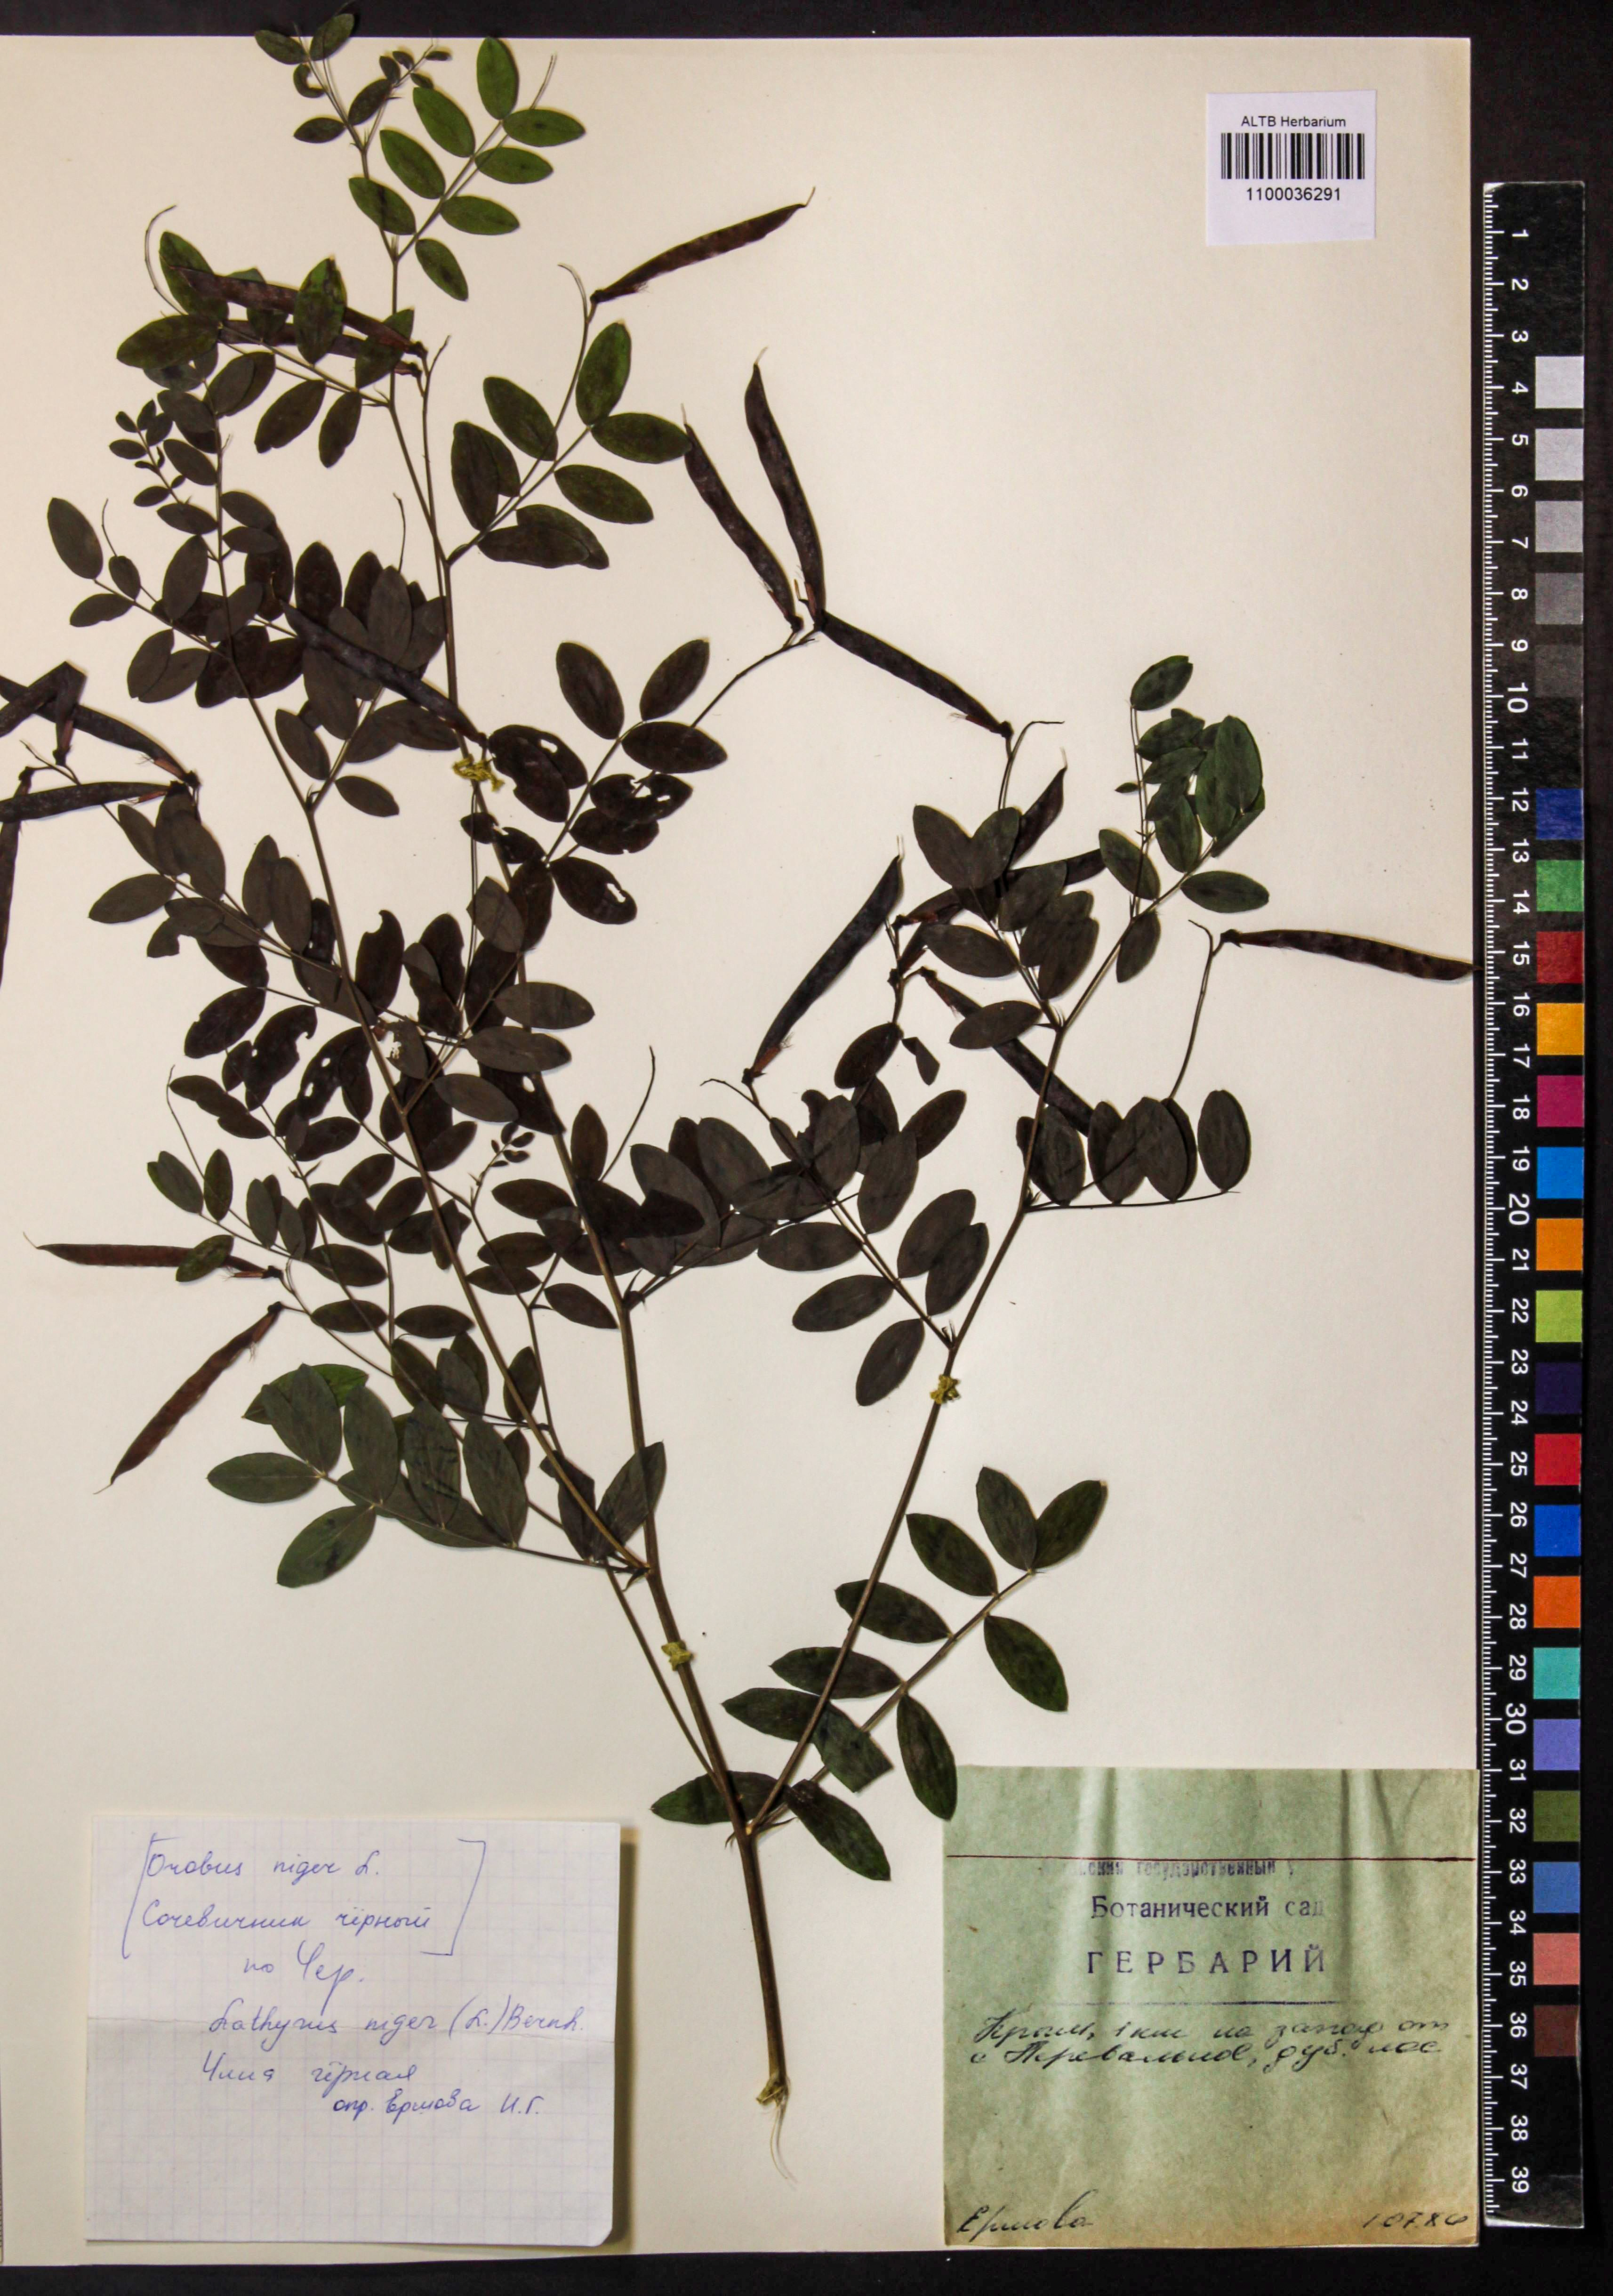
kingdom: Plantae
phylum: Tracheophyta
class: Magnoliopsida
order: Fabales
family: Fabaceae
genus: Lathyrus
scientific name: Lathyrus niger
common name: Black pea
